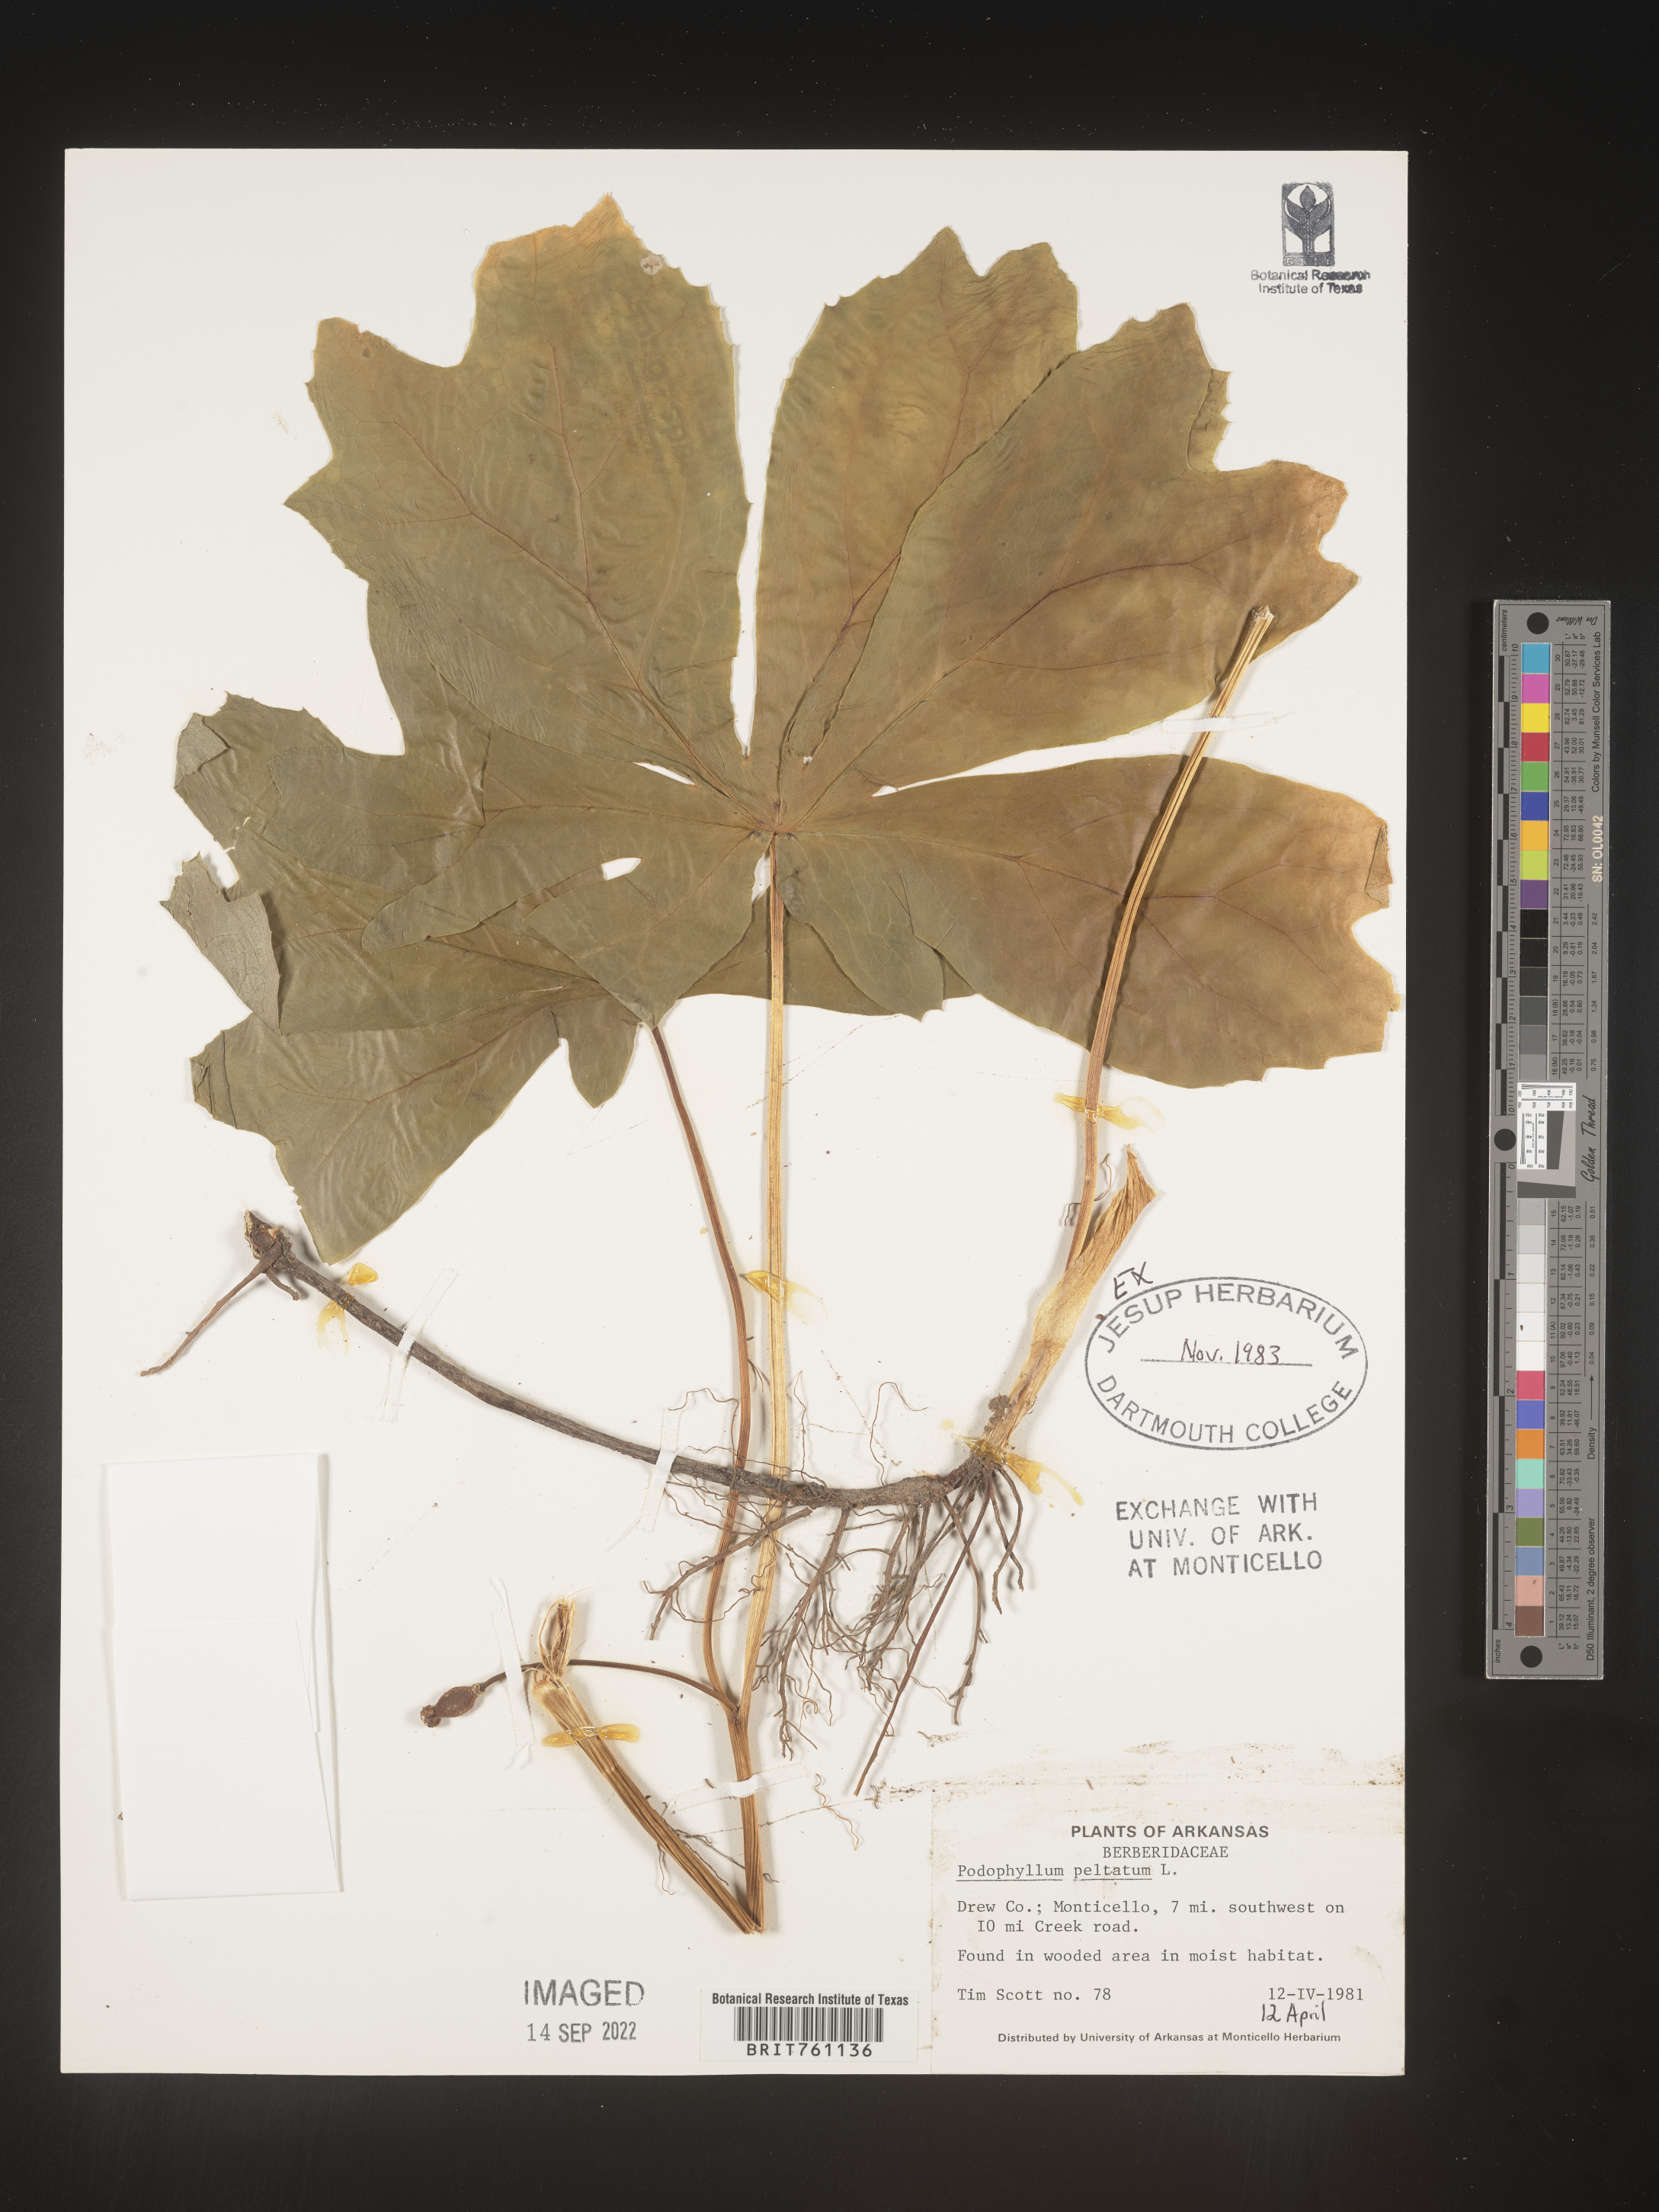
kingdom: Plantae
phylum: Tracheophyta
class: Magnoliopsida
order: Ranunculales
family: Berberidaceae
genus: Podophyllum
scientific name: Podophyllum peltatum
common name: Wild mandrake
